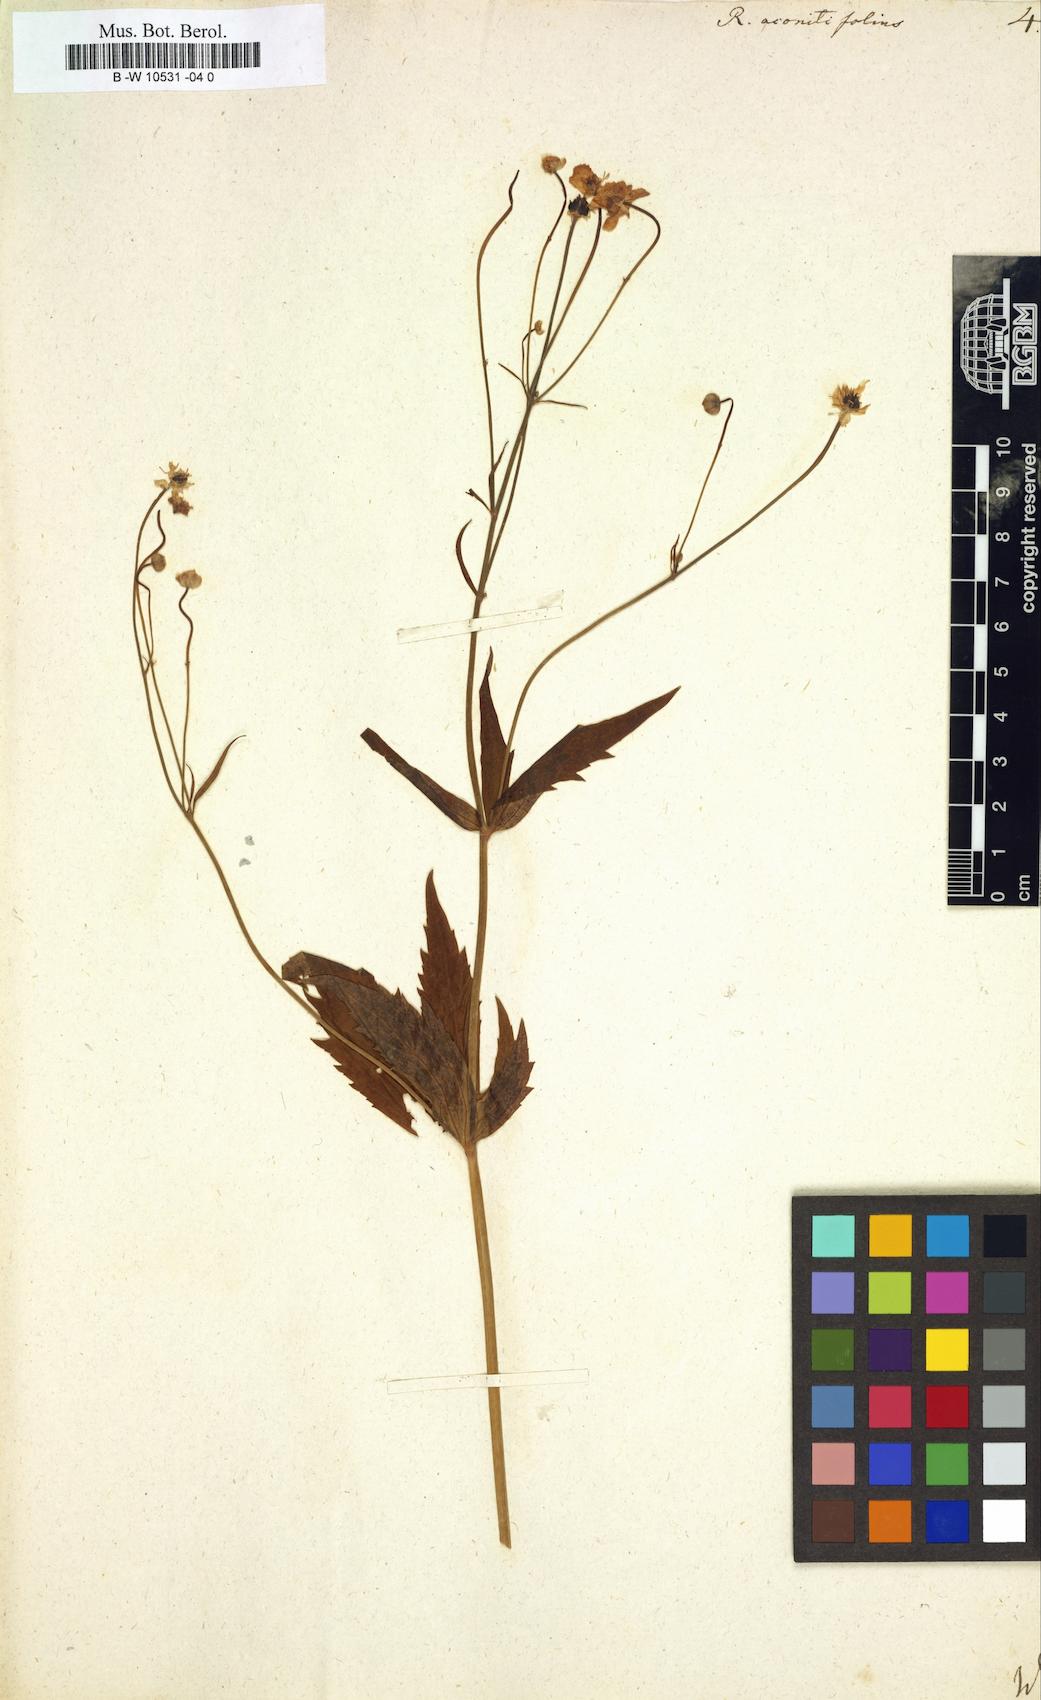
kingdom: Plantae
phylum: Tracheophyta
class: Magnoliopsida
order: Ranunculales
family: Ranunculaceae
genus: Ranunculus
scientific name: Ranunculus aconitifolius
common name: Aconite-leaved buttercup
